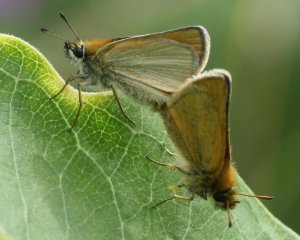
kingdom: Animalia
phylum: Arthropoda
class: Insecta
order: Lepidoptera
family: Hesperiidae
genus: Thymelicus
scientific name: Thymelicus lineola
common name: European Skipper
